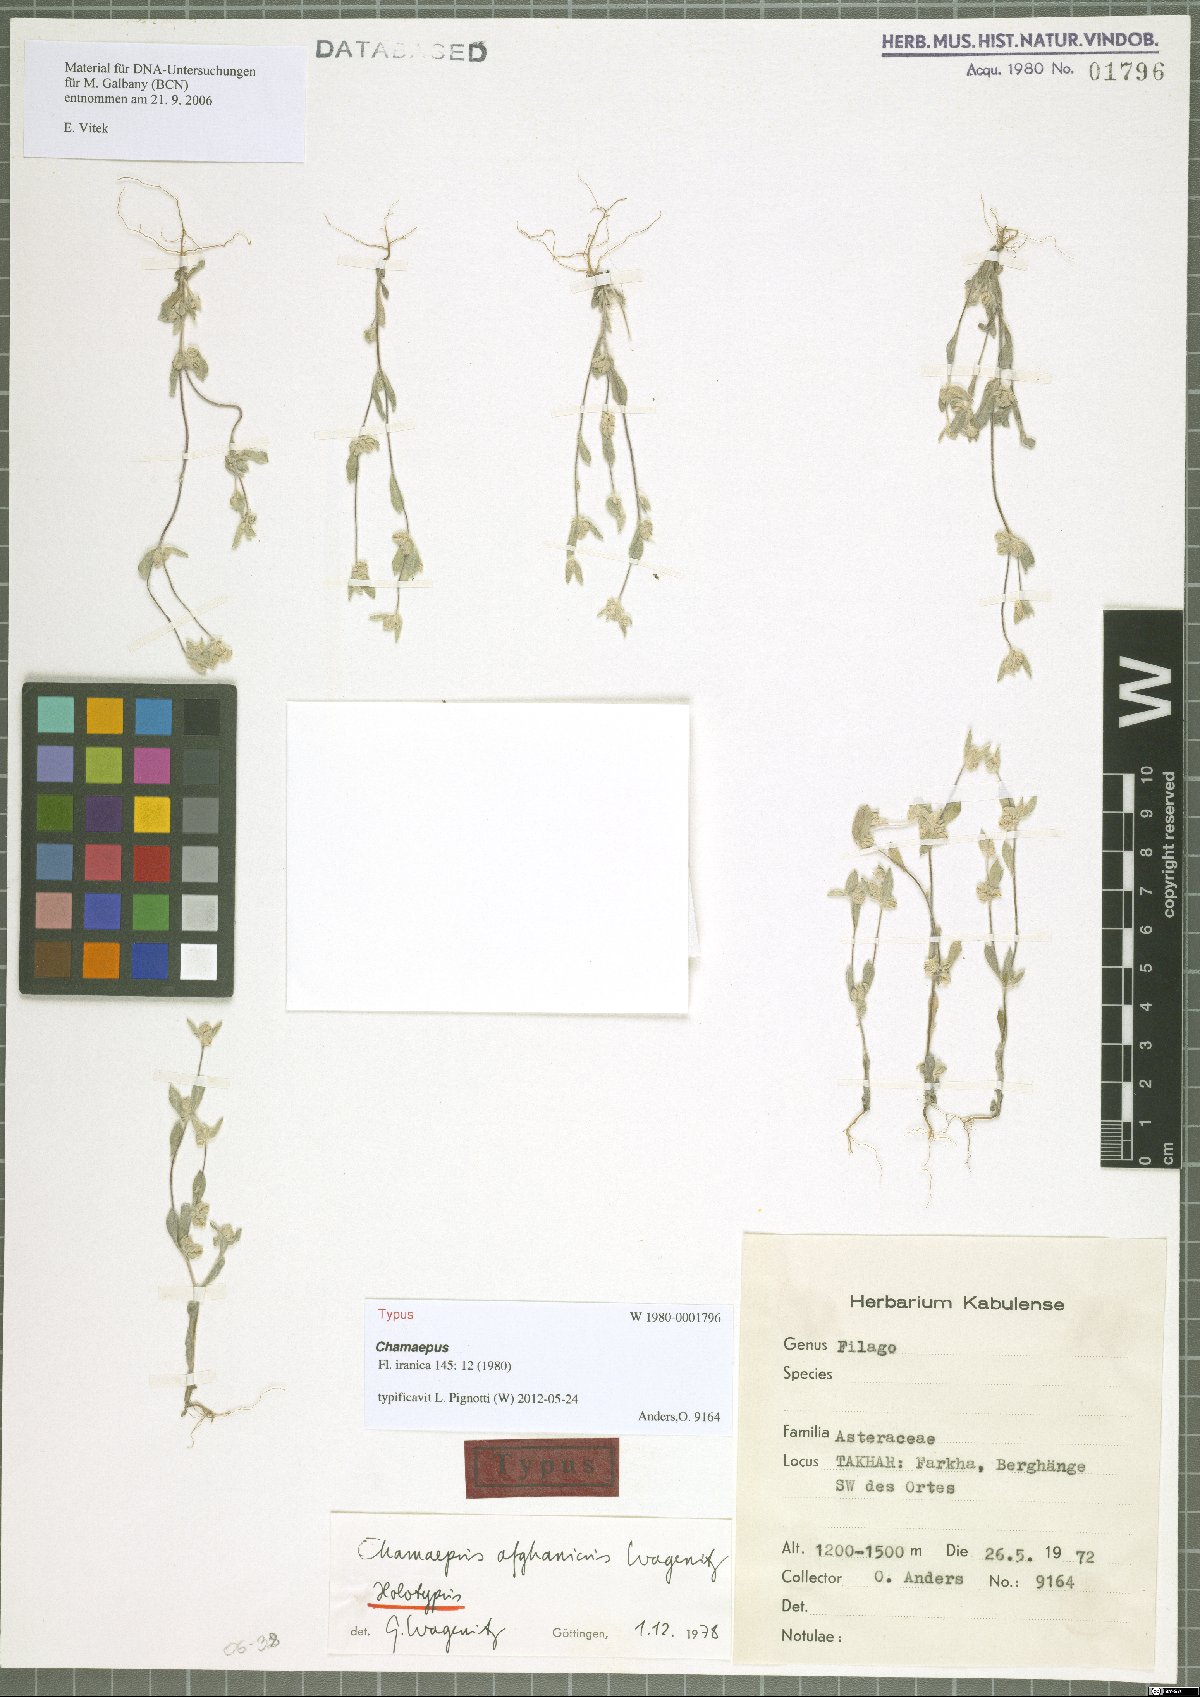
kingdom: Plantae
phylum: Tracheophyta
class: Magnoliopsida
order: Asterales
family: Asteraceae
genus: Chamaepus
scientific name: Chamaepus afghanicus
